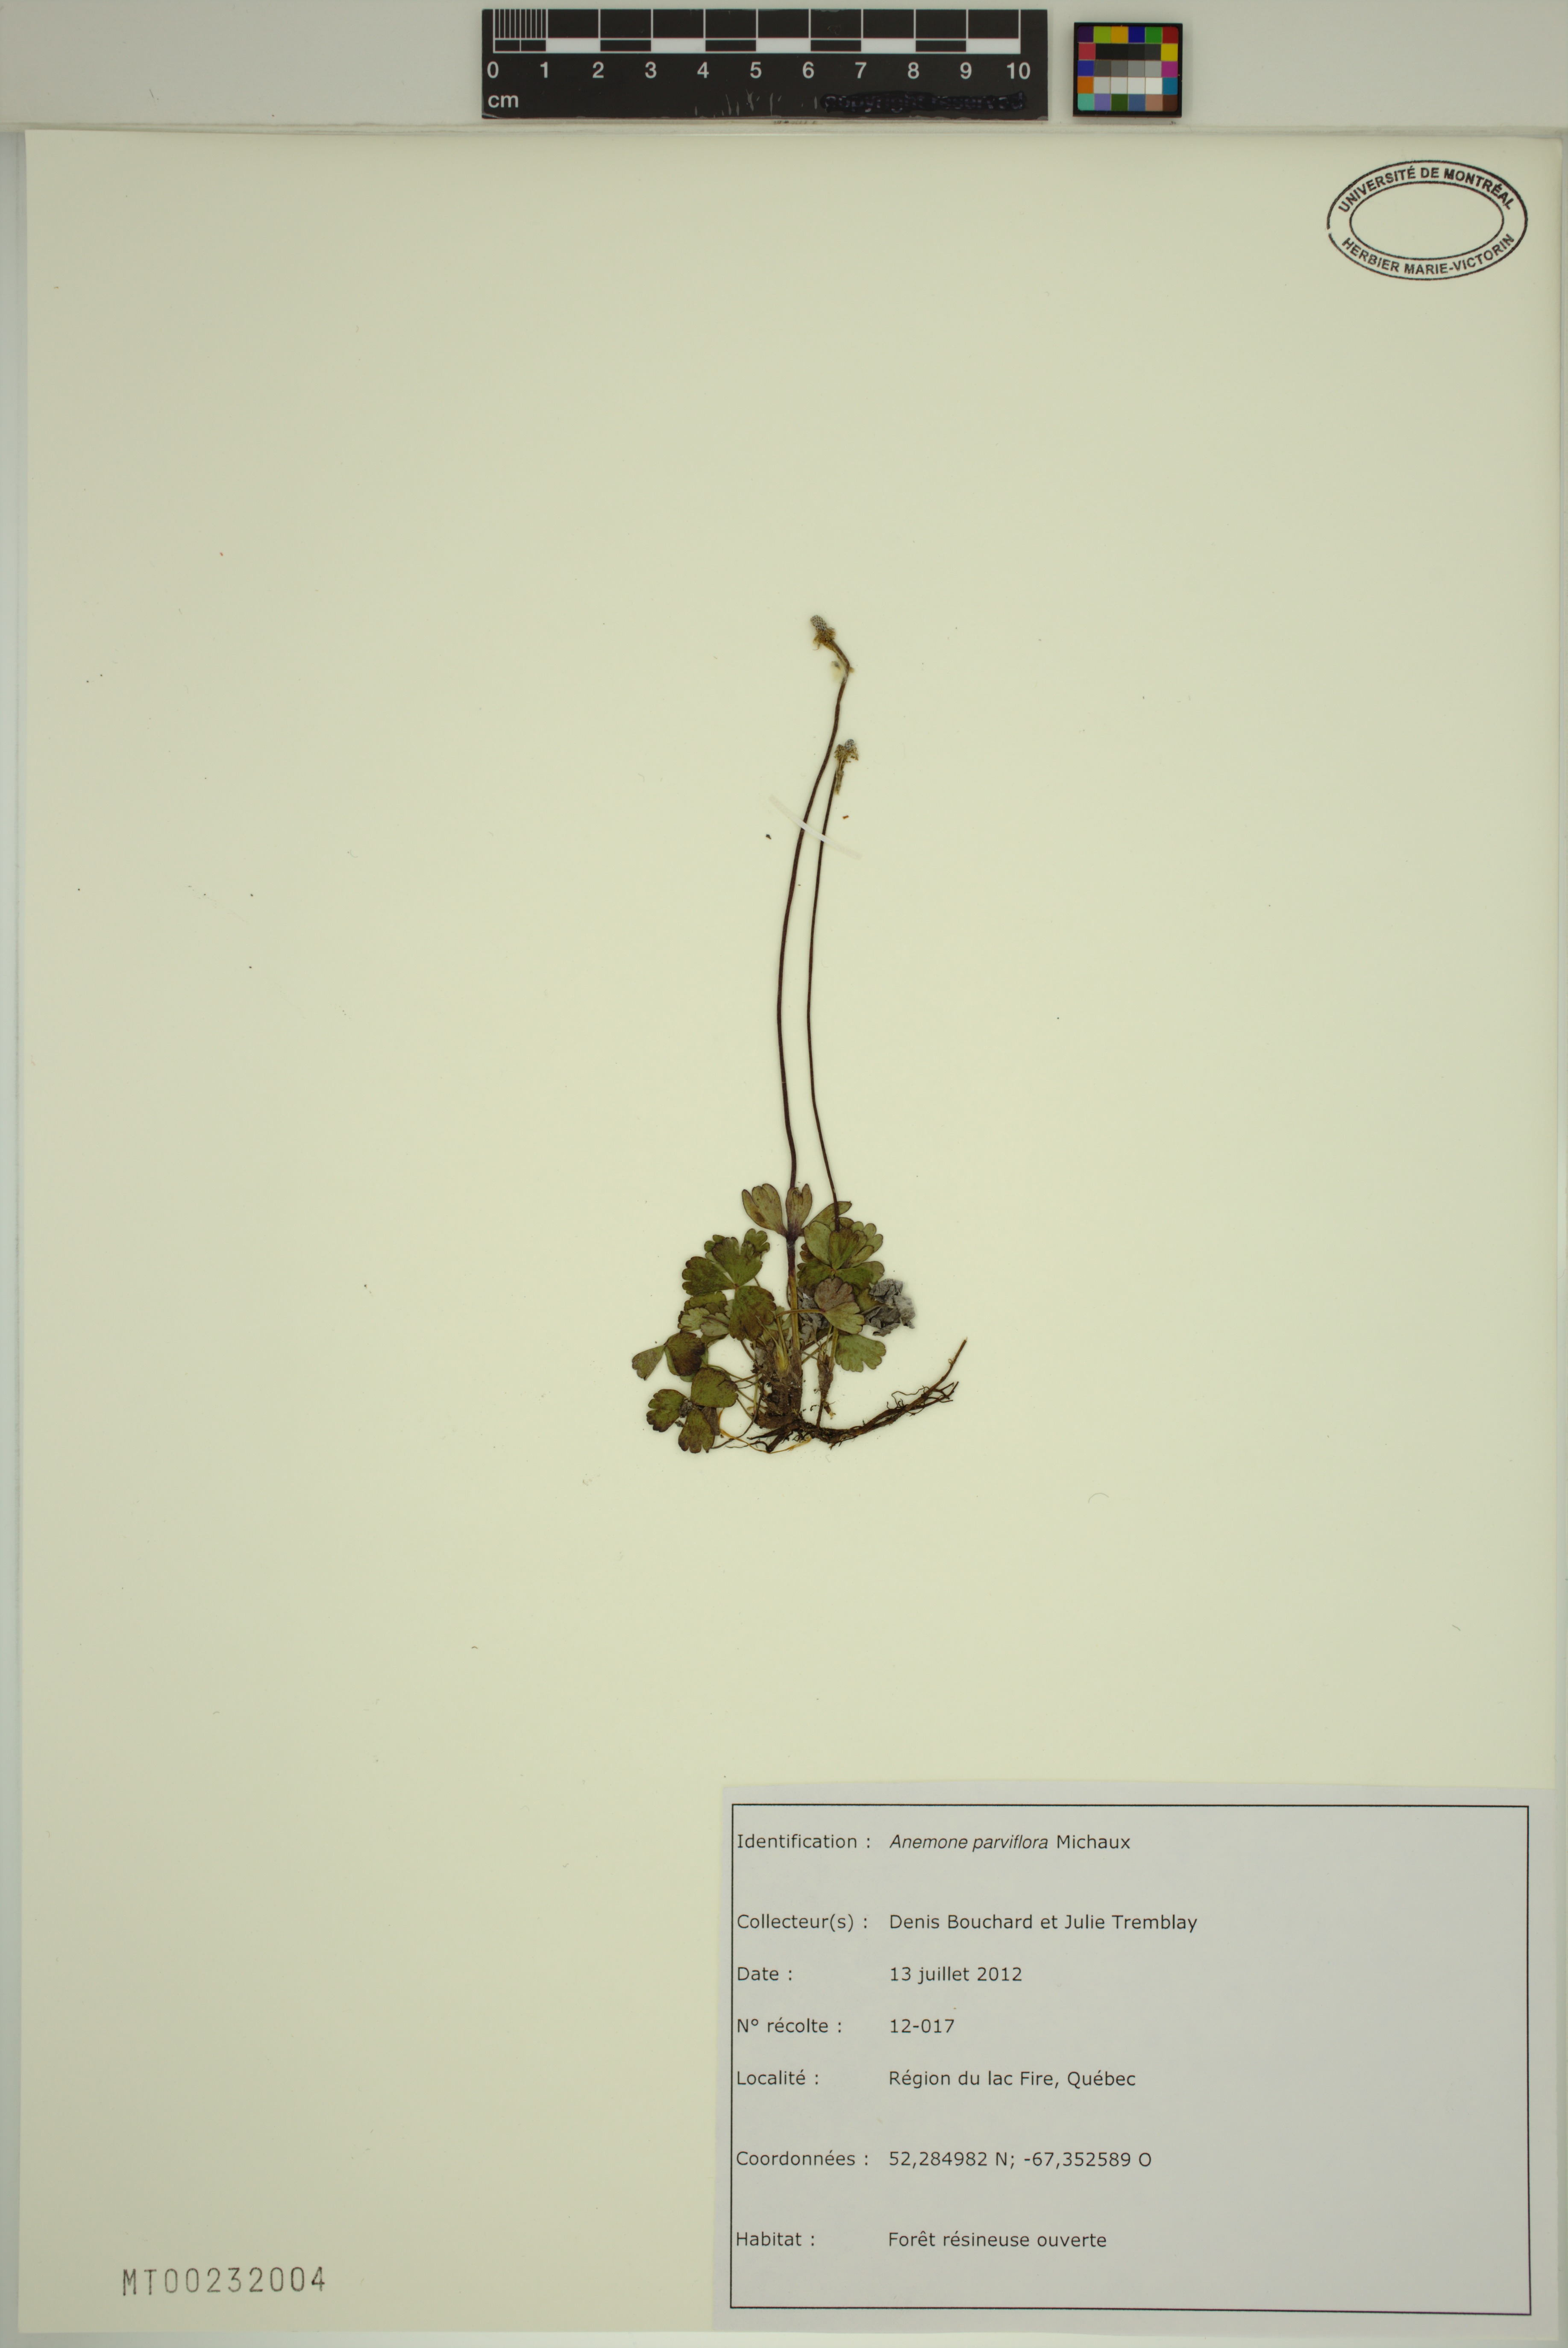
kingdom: Plantae
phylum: Tracheophyta
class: Magnoliopsida
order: Ranunculales
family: Ranunculaceae
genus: Anemone
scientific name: Anemone parviflora
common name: Northern anemone
